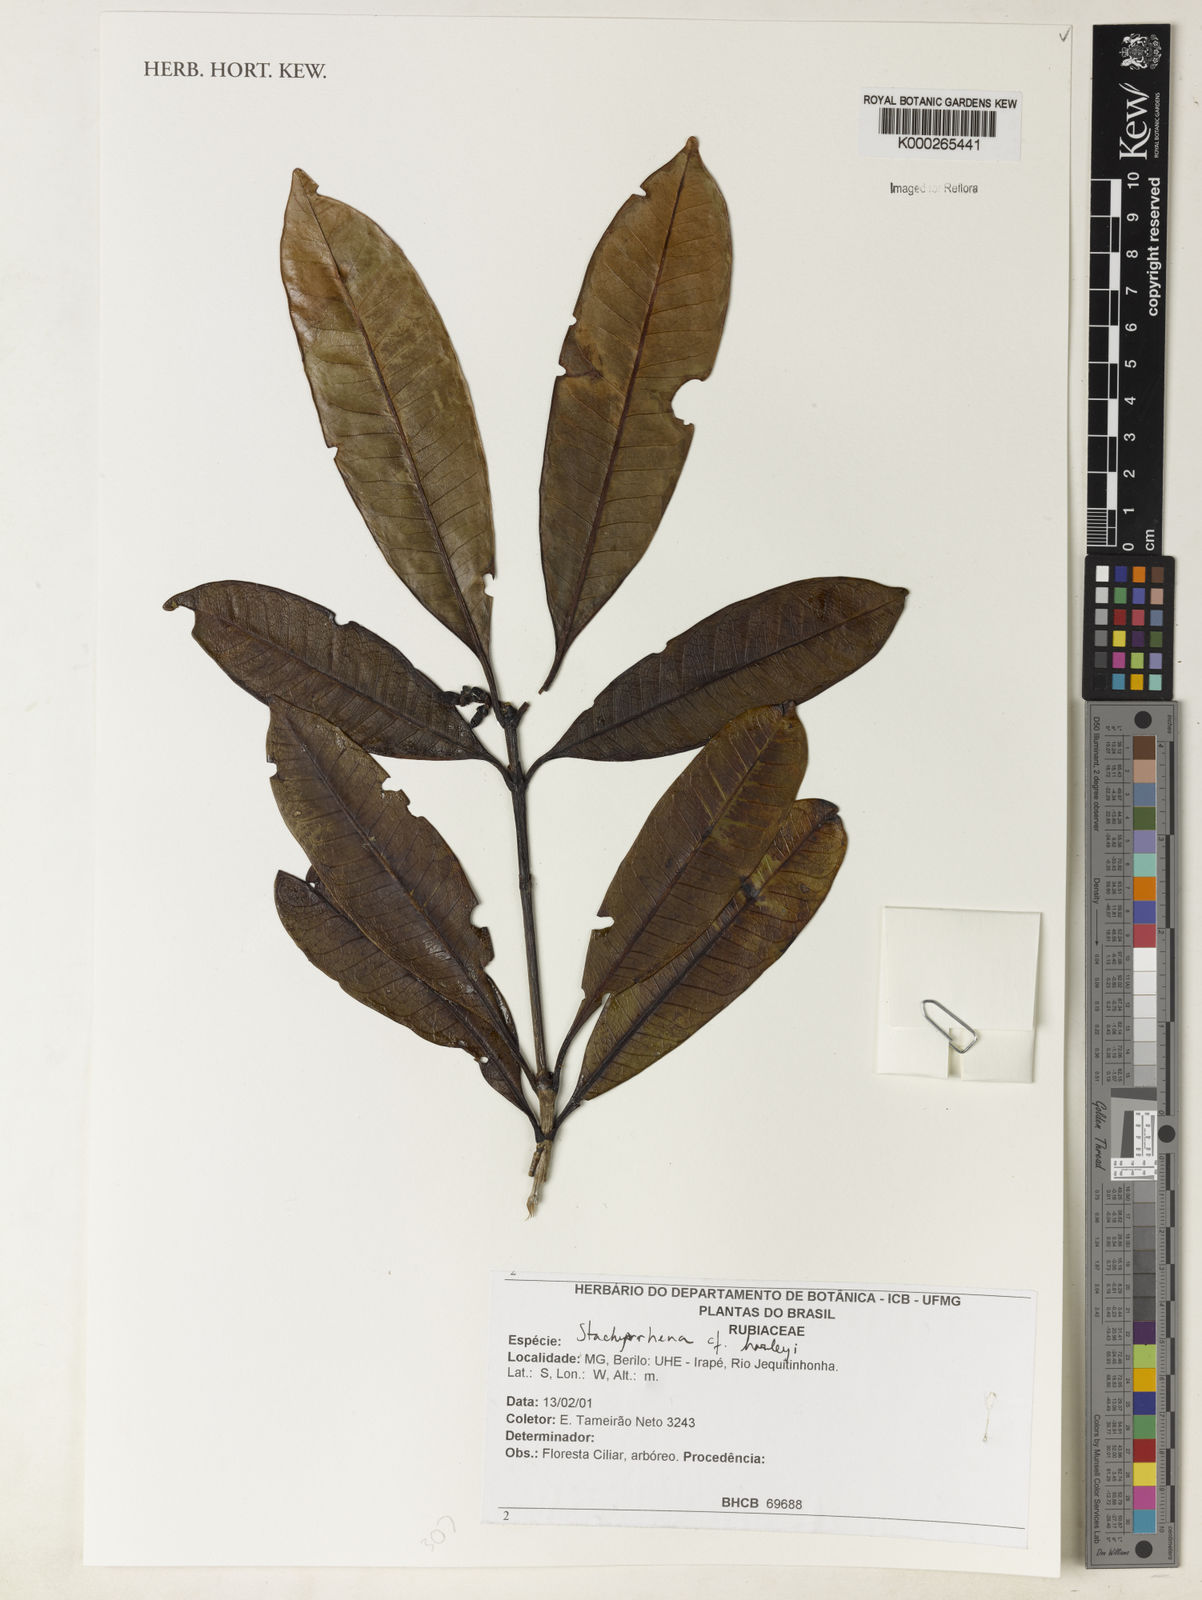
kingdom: Plantae
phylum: Tracheophyta
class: Magnoliopsida
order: Gentianales
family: Rubiaceae
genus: Stachyarrhena
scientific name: Stachyarrhena harleyi
